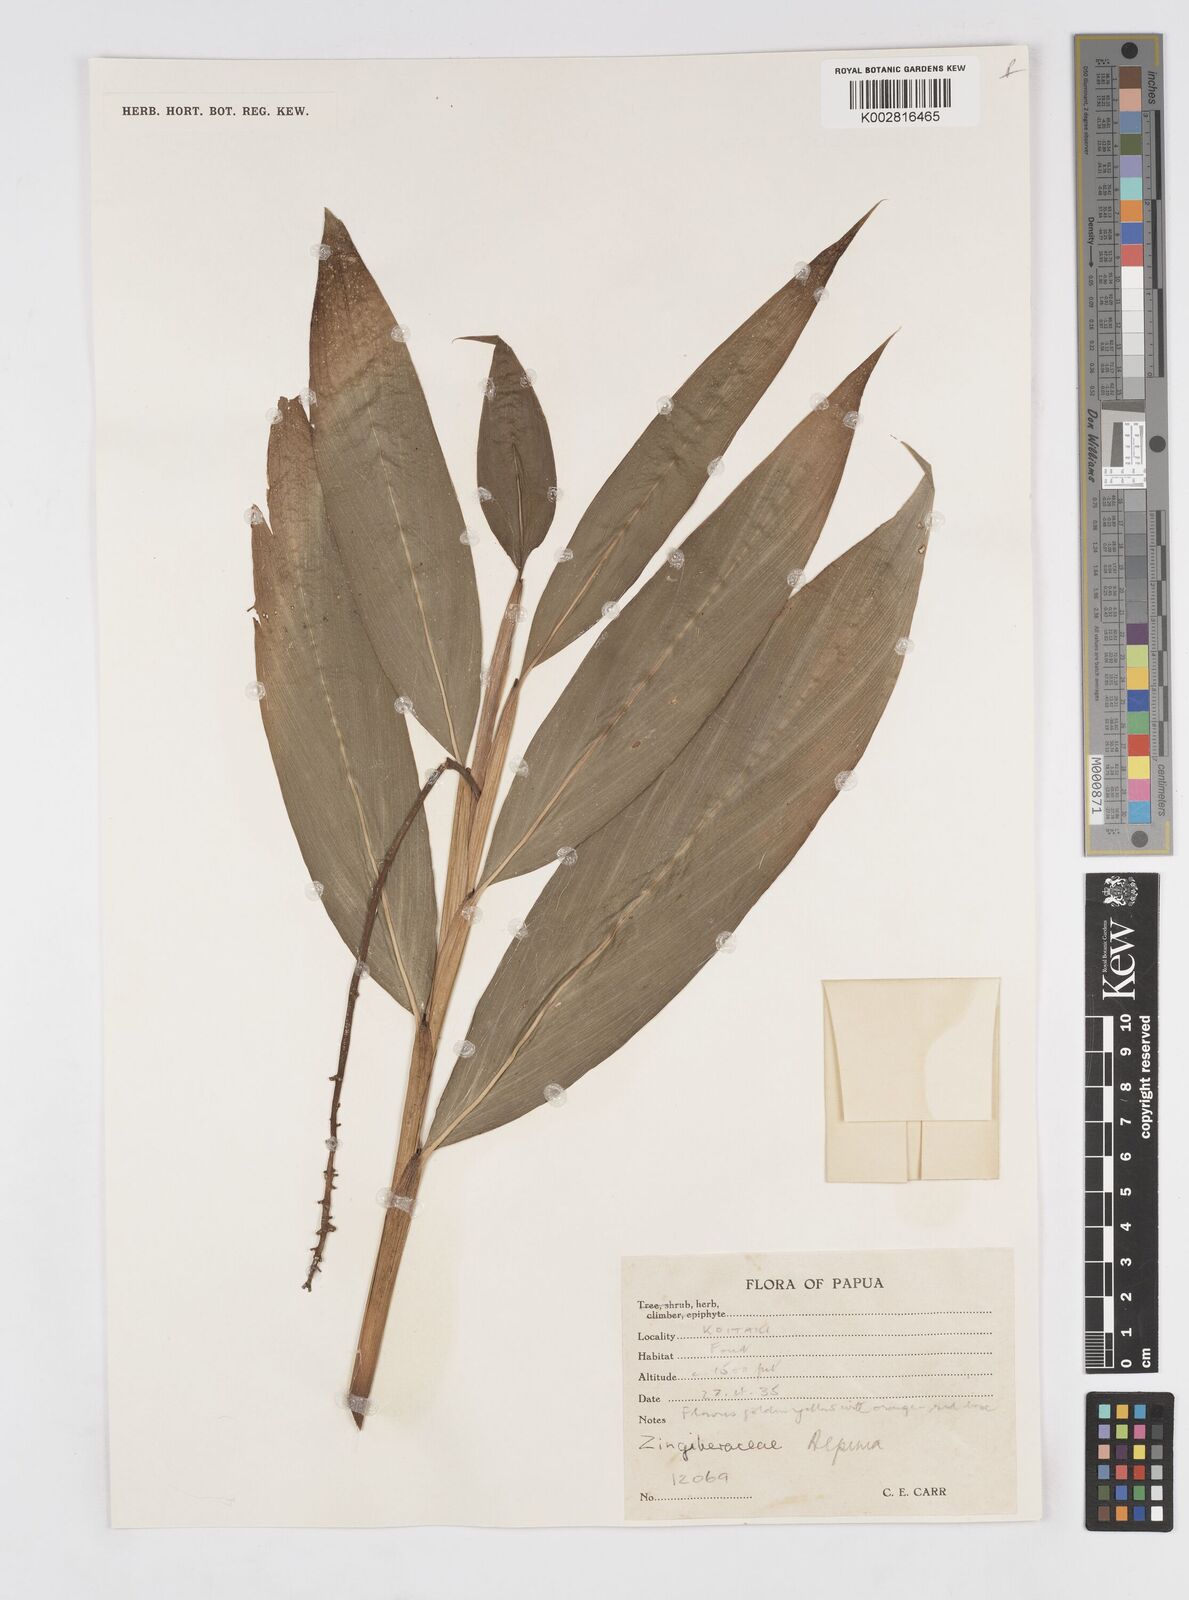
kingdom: Plantae
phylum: Tracheophyta
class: Liliopsida
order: Zingiberales
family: Zingiberaceae
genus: Alpinia
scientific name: Alpinia
